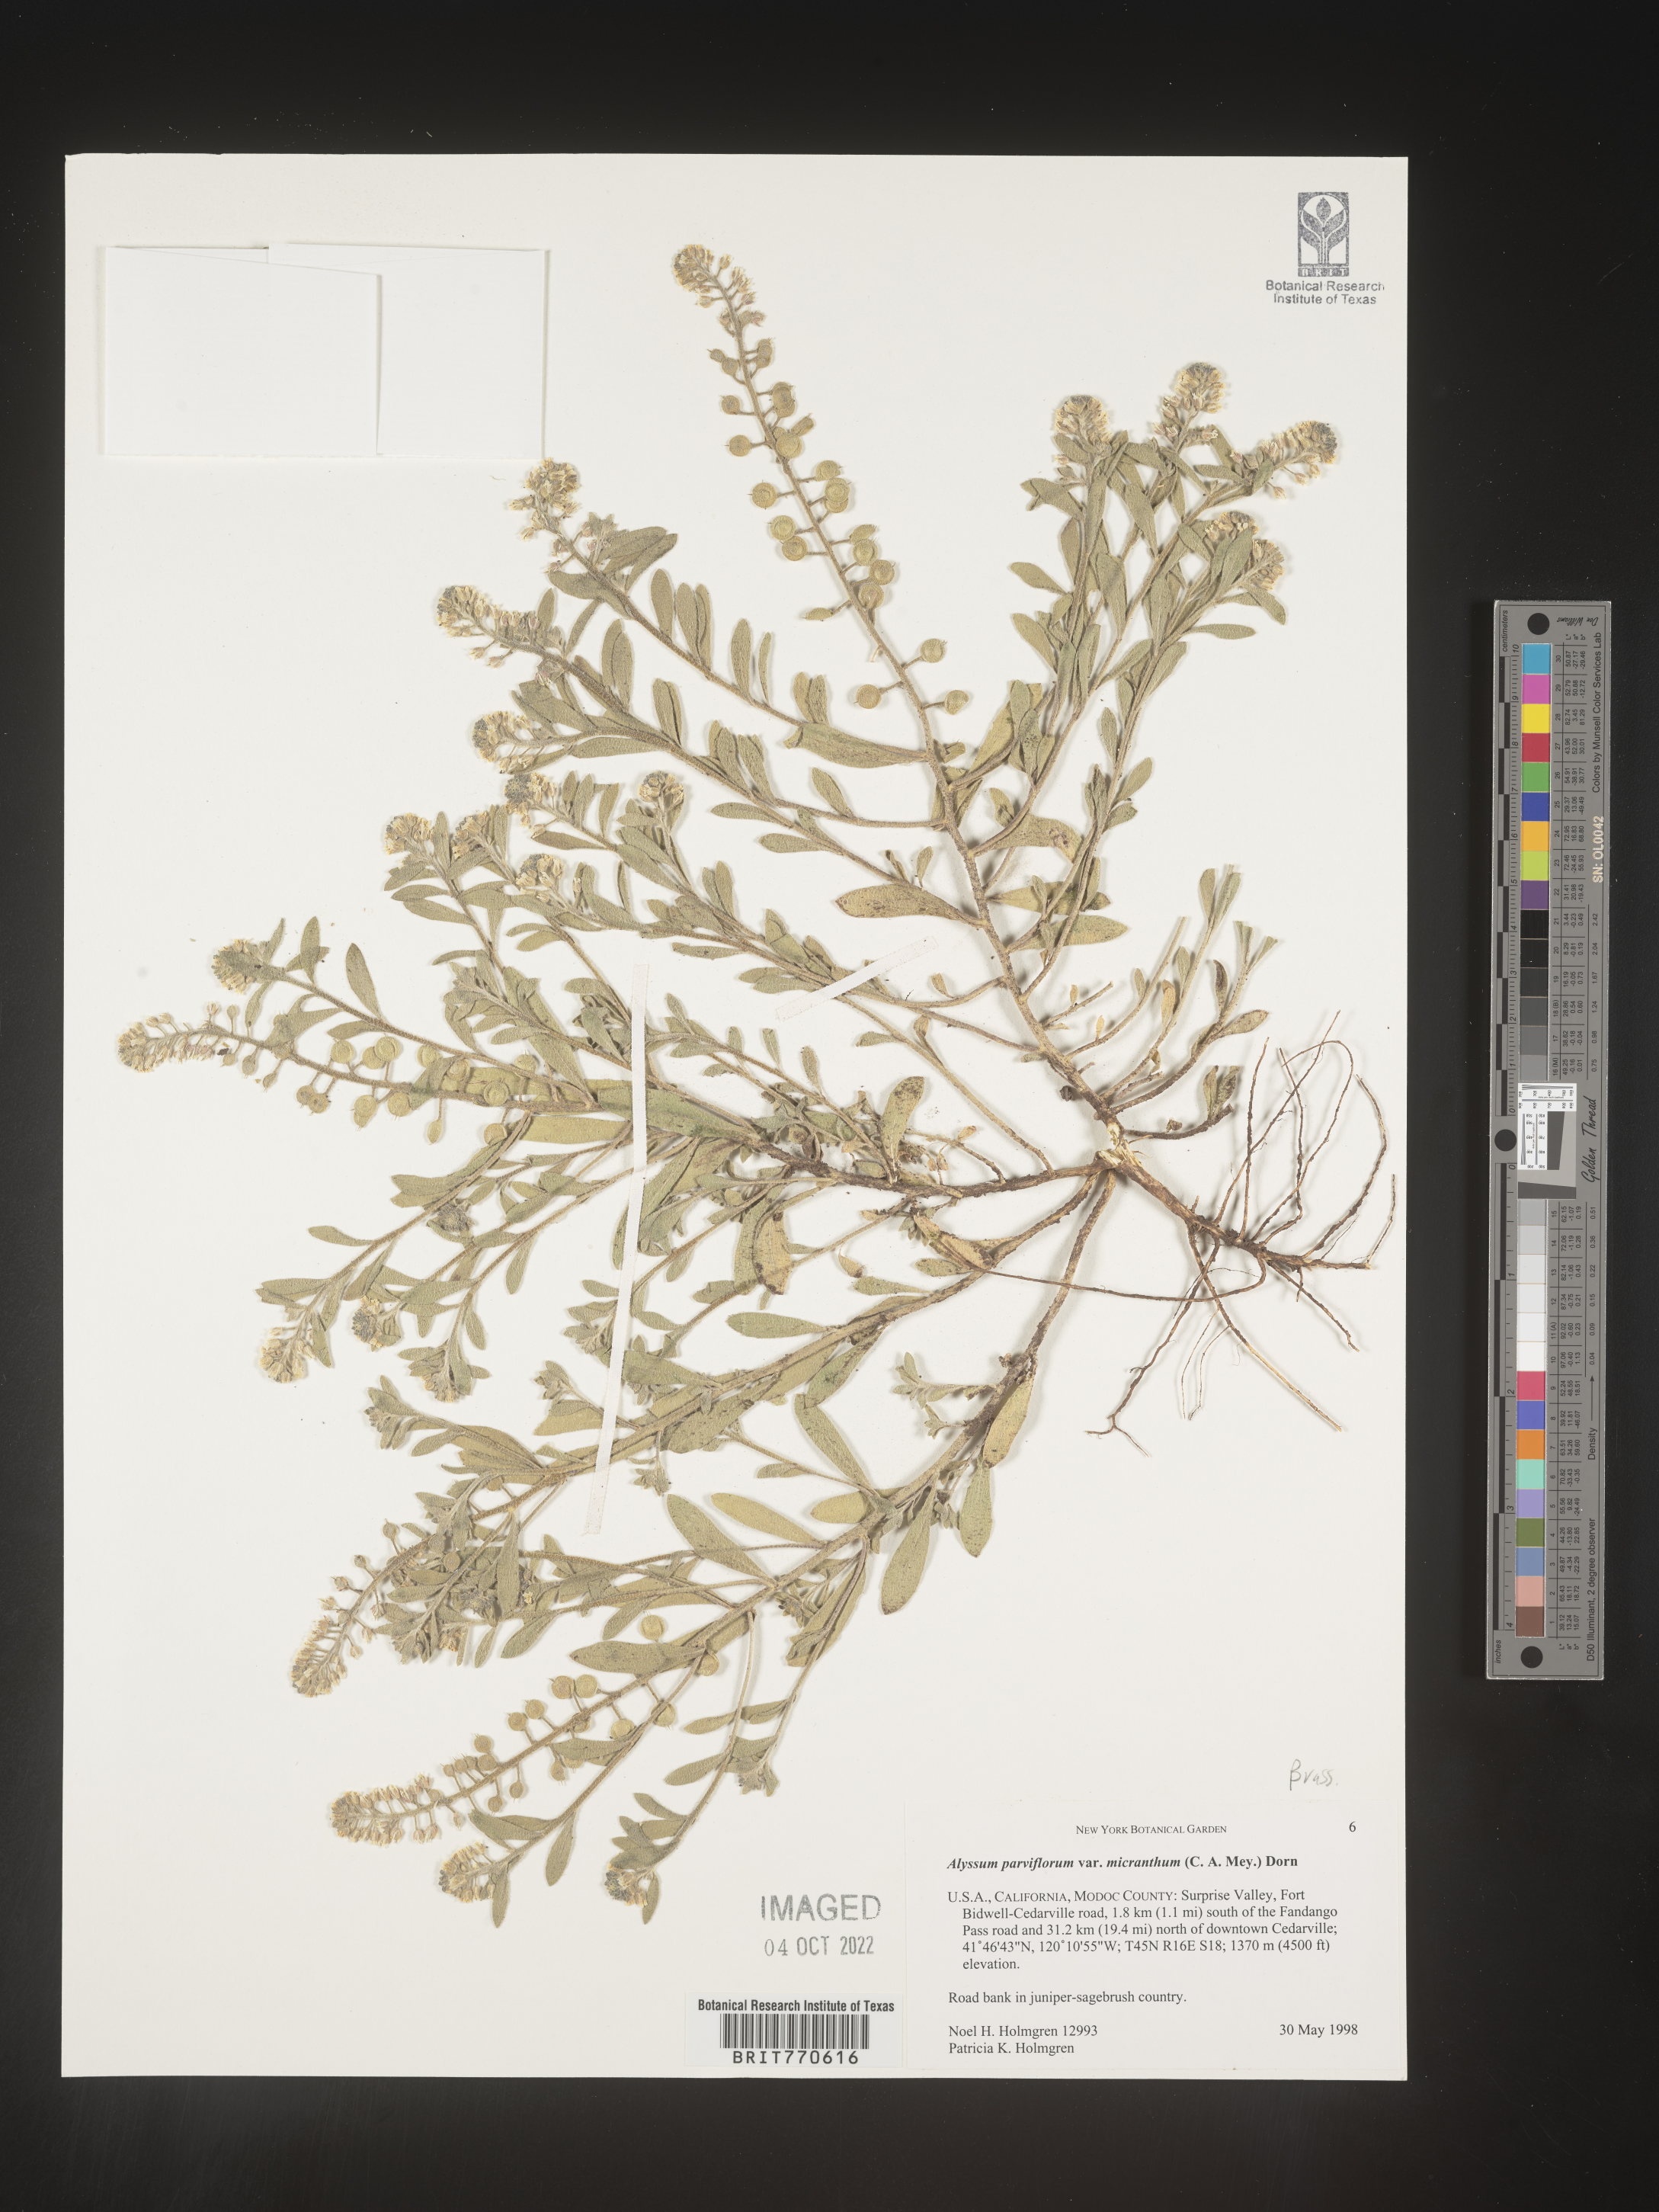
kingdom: Plantae
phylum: Tracheophyta
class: Magnoliopsida
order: Brassicales
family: Brassicaceae
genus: Alyssum
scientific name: Alyssum
